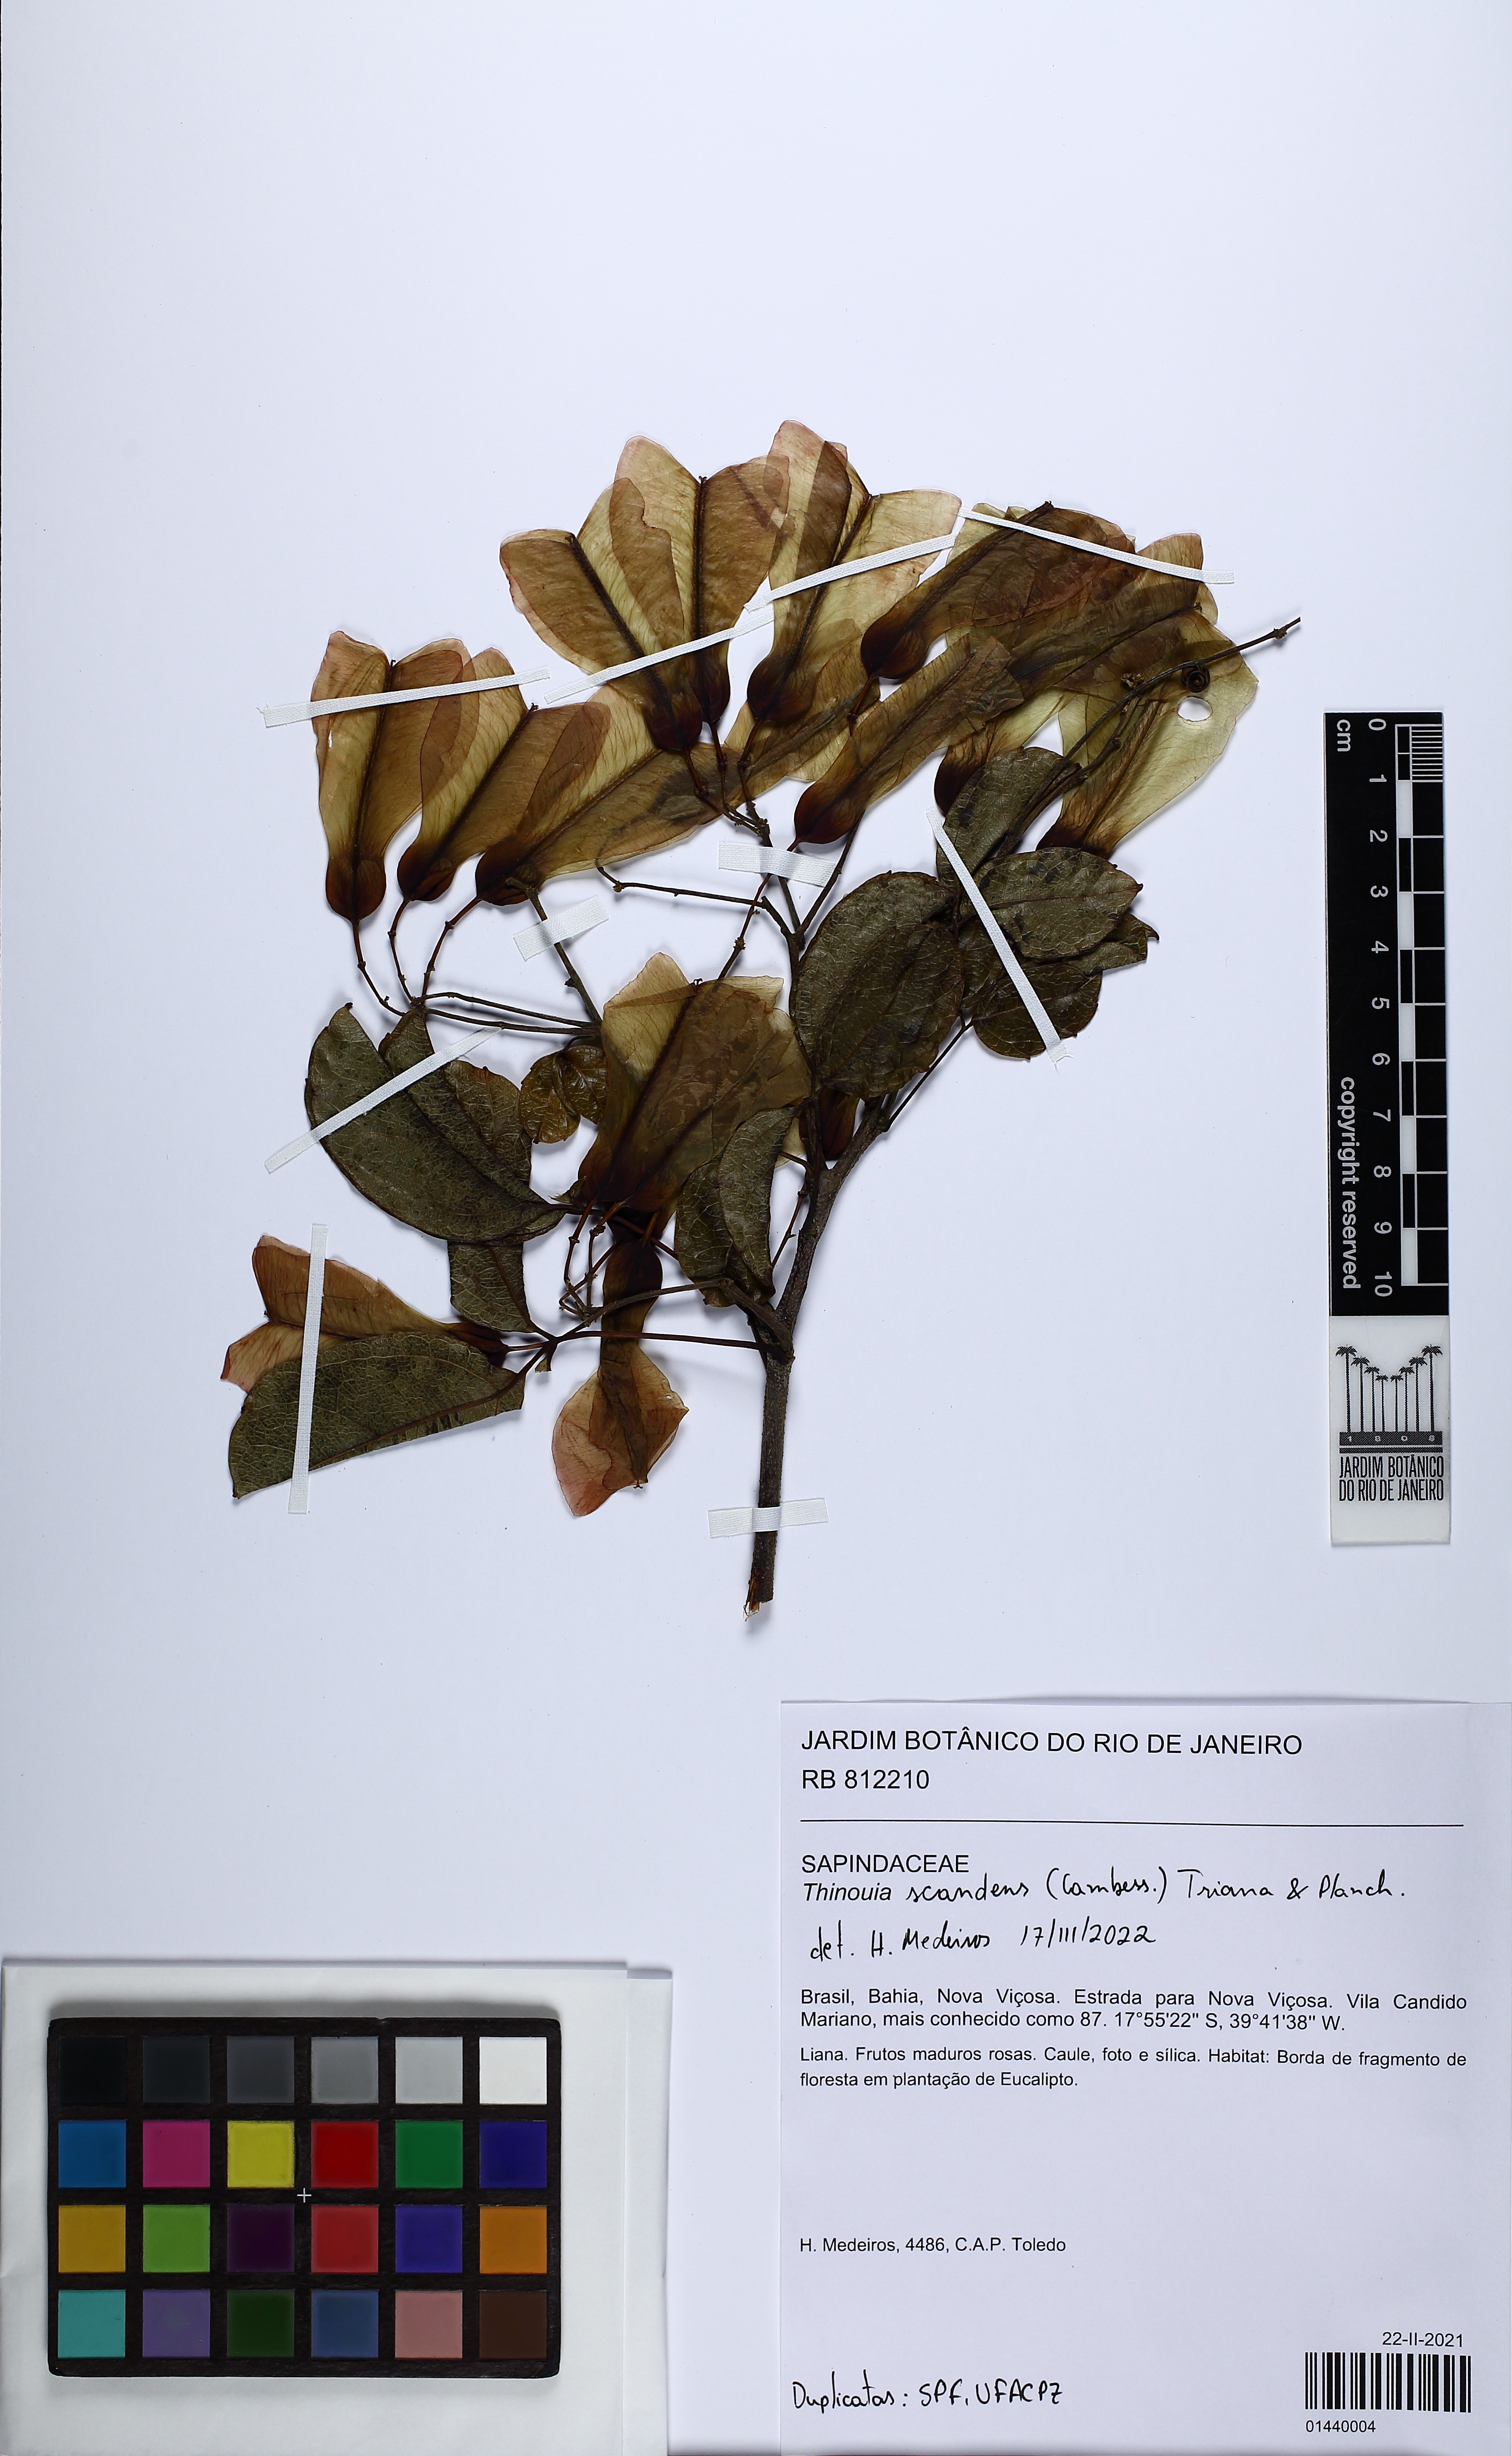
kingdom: Plantae
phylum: Tracheophyta
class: Magnoliopsida
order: Sapindales
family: Sapindaceae
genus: Thinouia
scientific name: Thinouia
